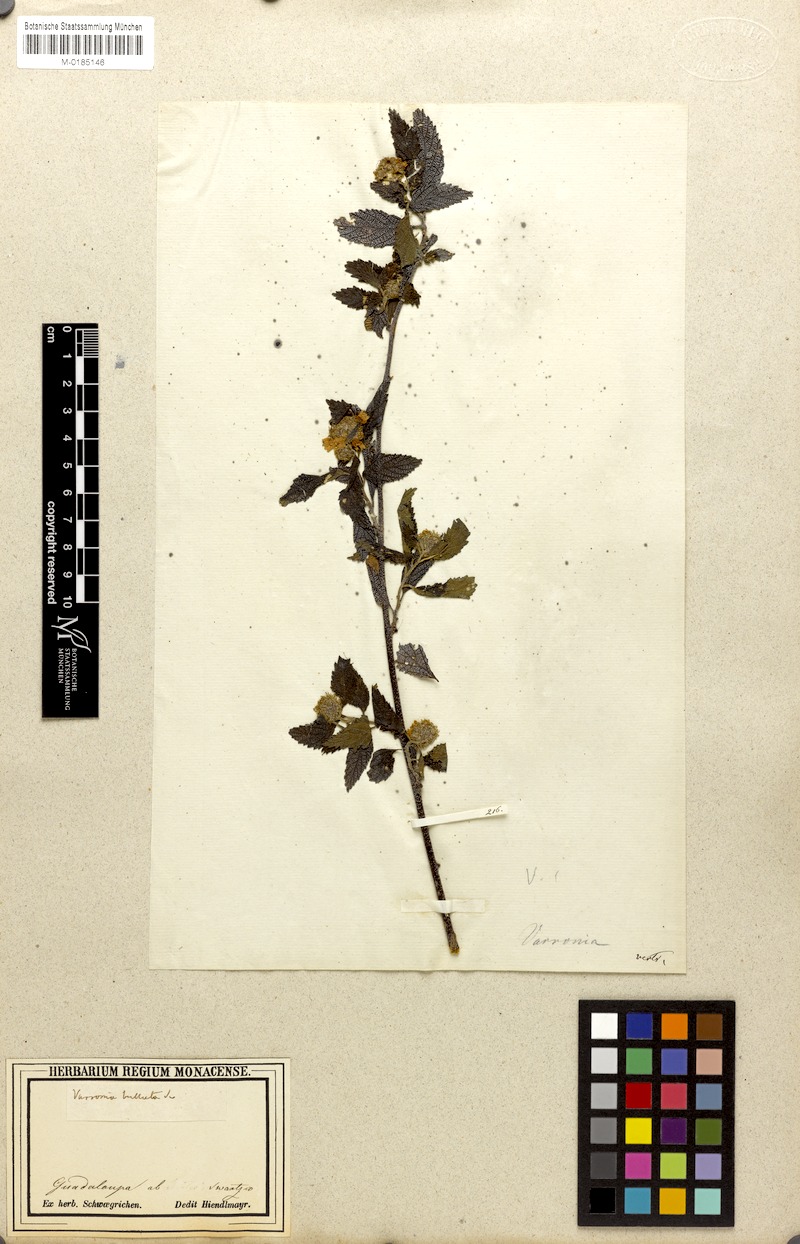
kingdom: Plantae
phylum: Tracheophyta
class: Magnoliopsida
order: Boraginales
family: Cordiaceae
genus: Varronia
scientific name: Varronia bullata
